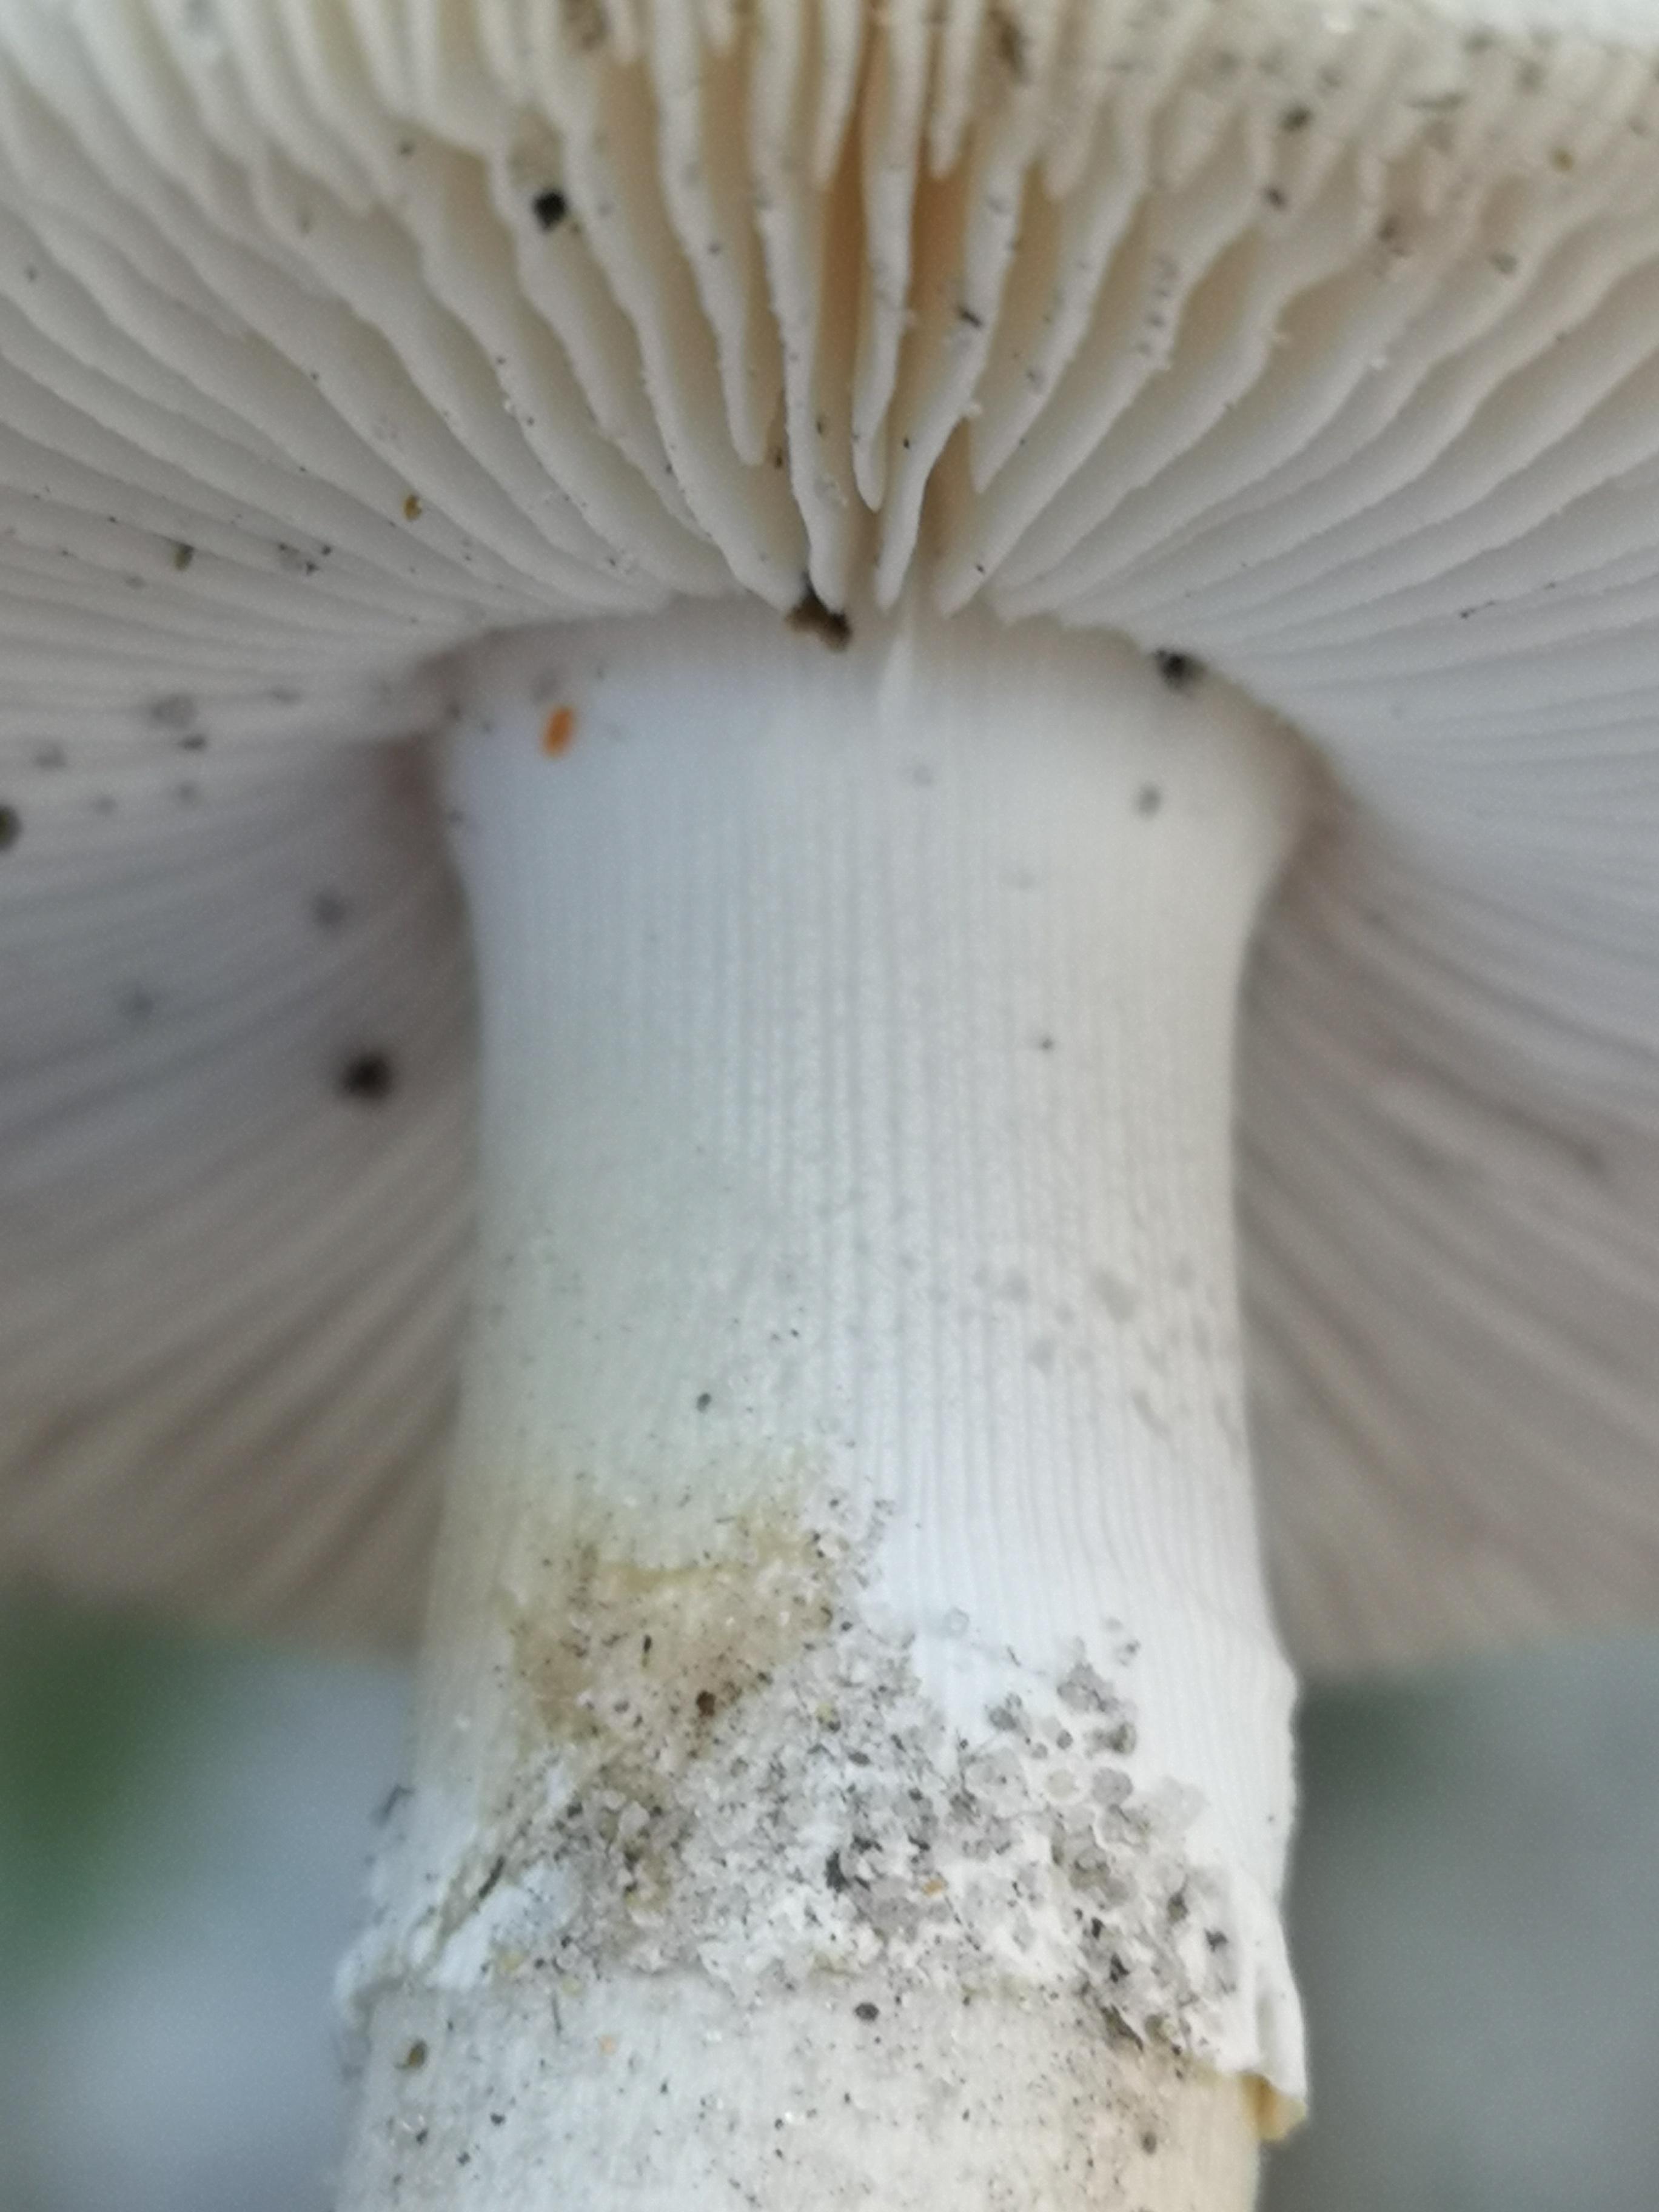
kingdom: Fungi
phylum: Basidiomycota
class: Agaricomycetes
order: Agaricales
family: Amanitaceae
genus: Amanita
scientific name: Amanita gemmata
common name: okkergul fluesvamp
